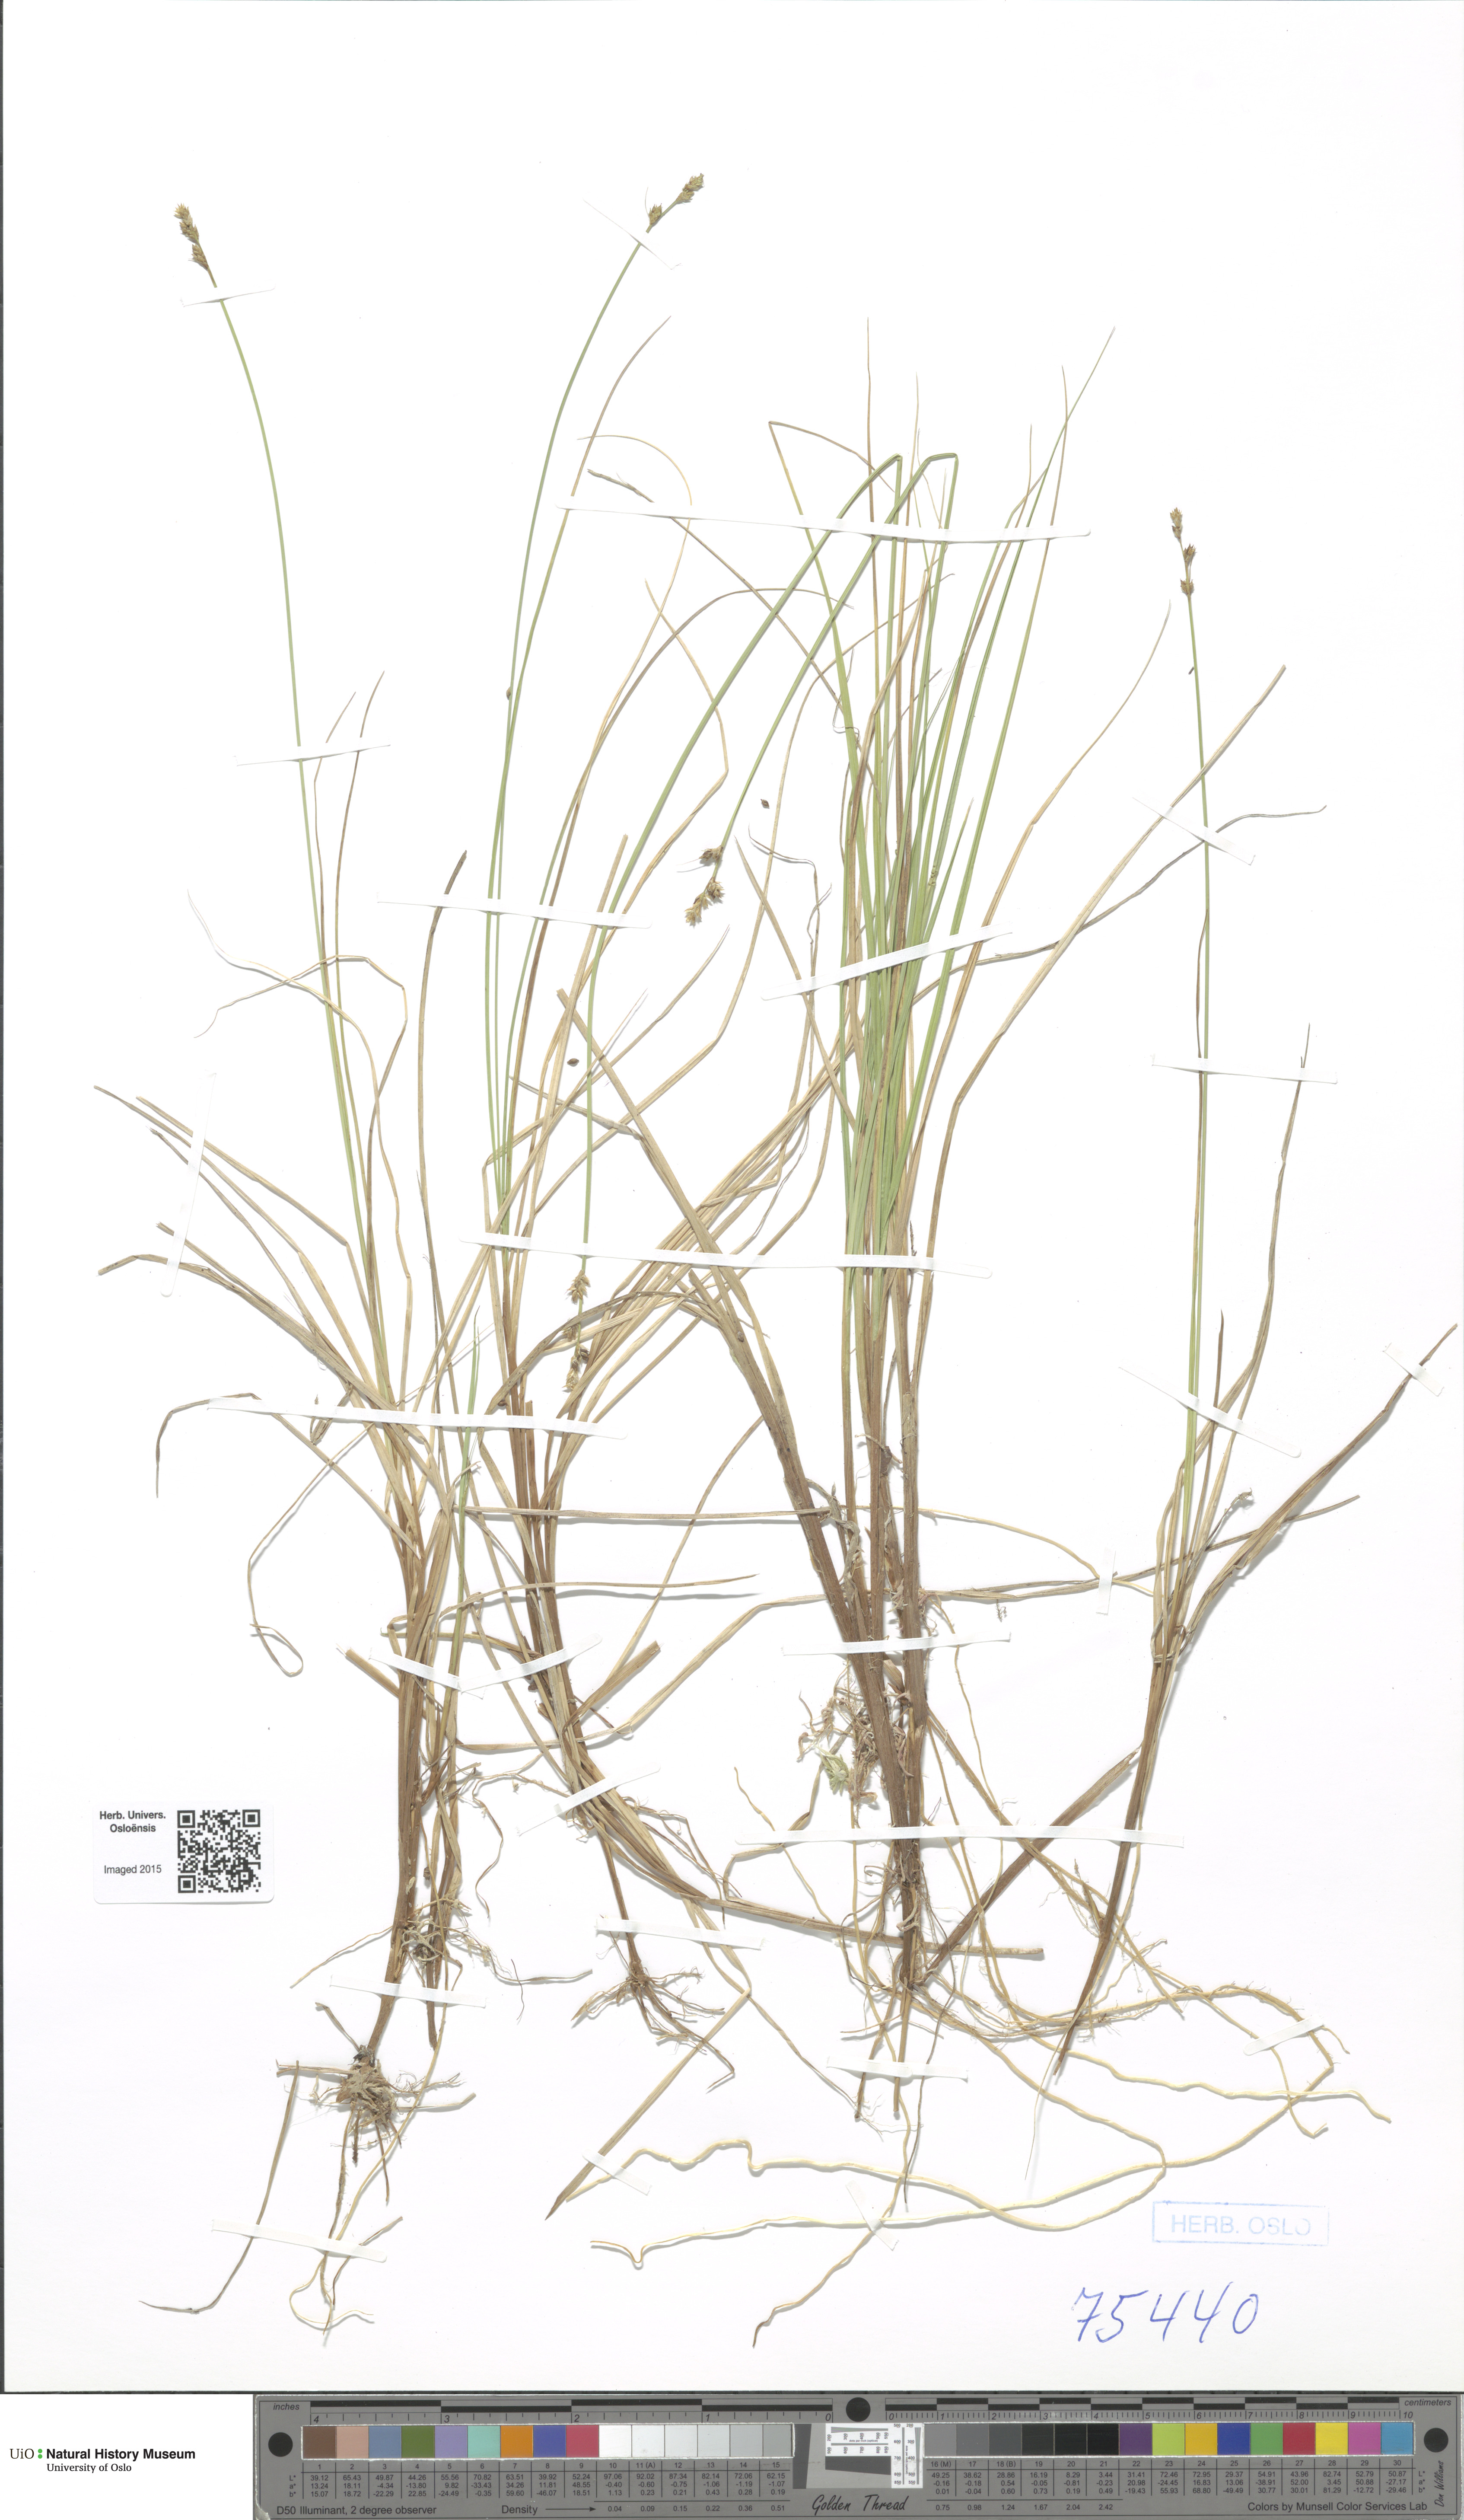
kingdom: Plantae
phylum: Tracheophyta
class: Liliopsida
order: Poales
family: Cyperaceae
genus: Carex
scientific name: Carex canescens
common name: White sedge
